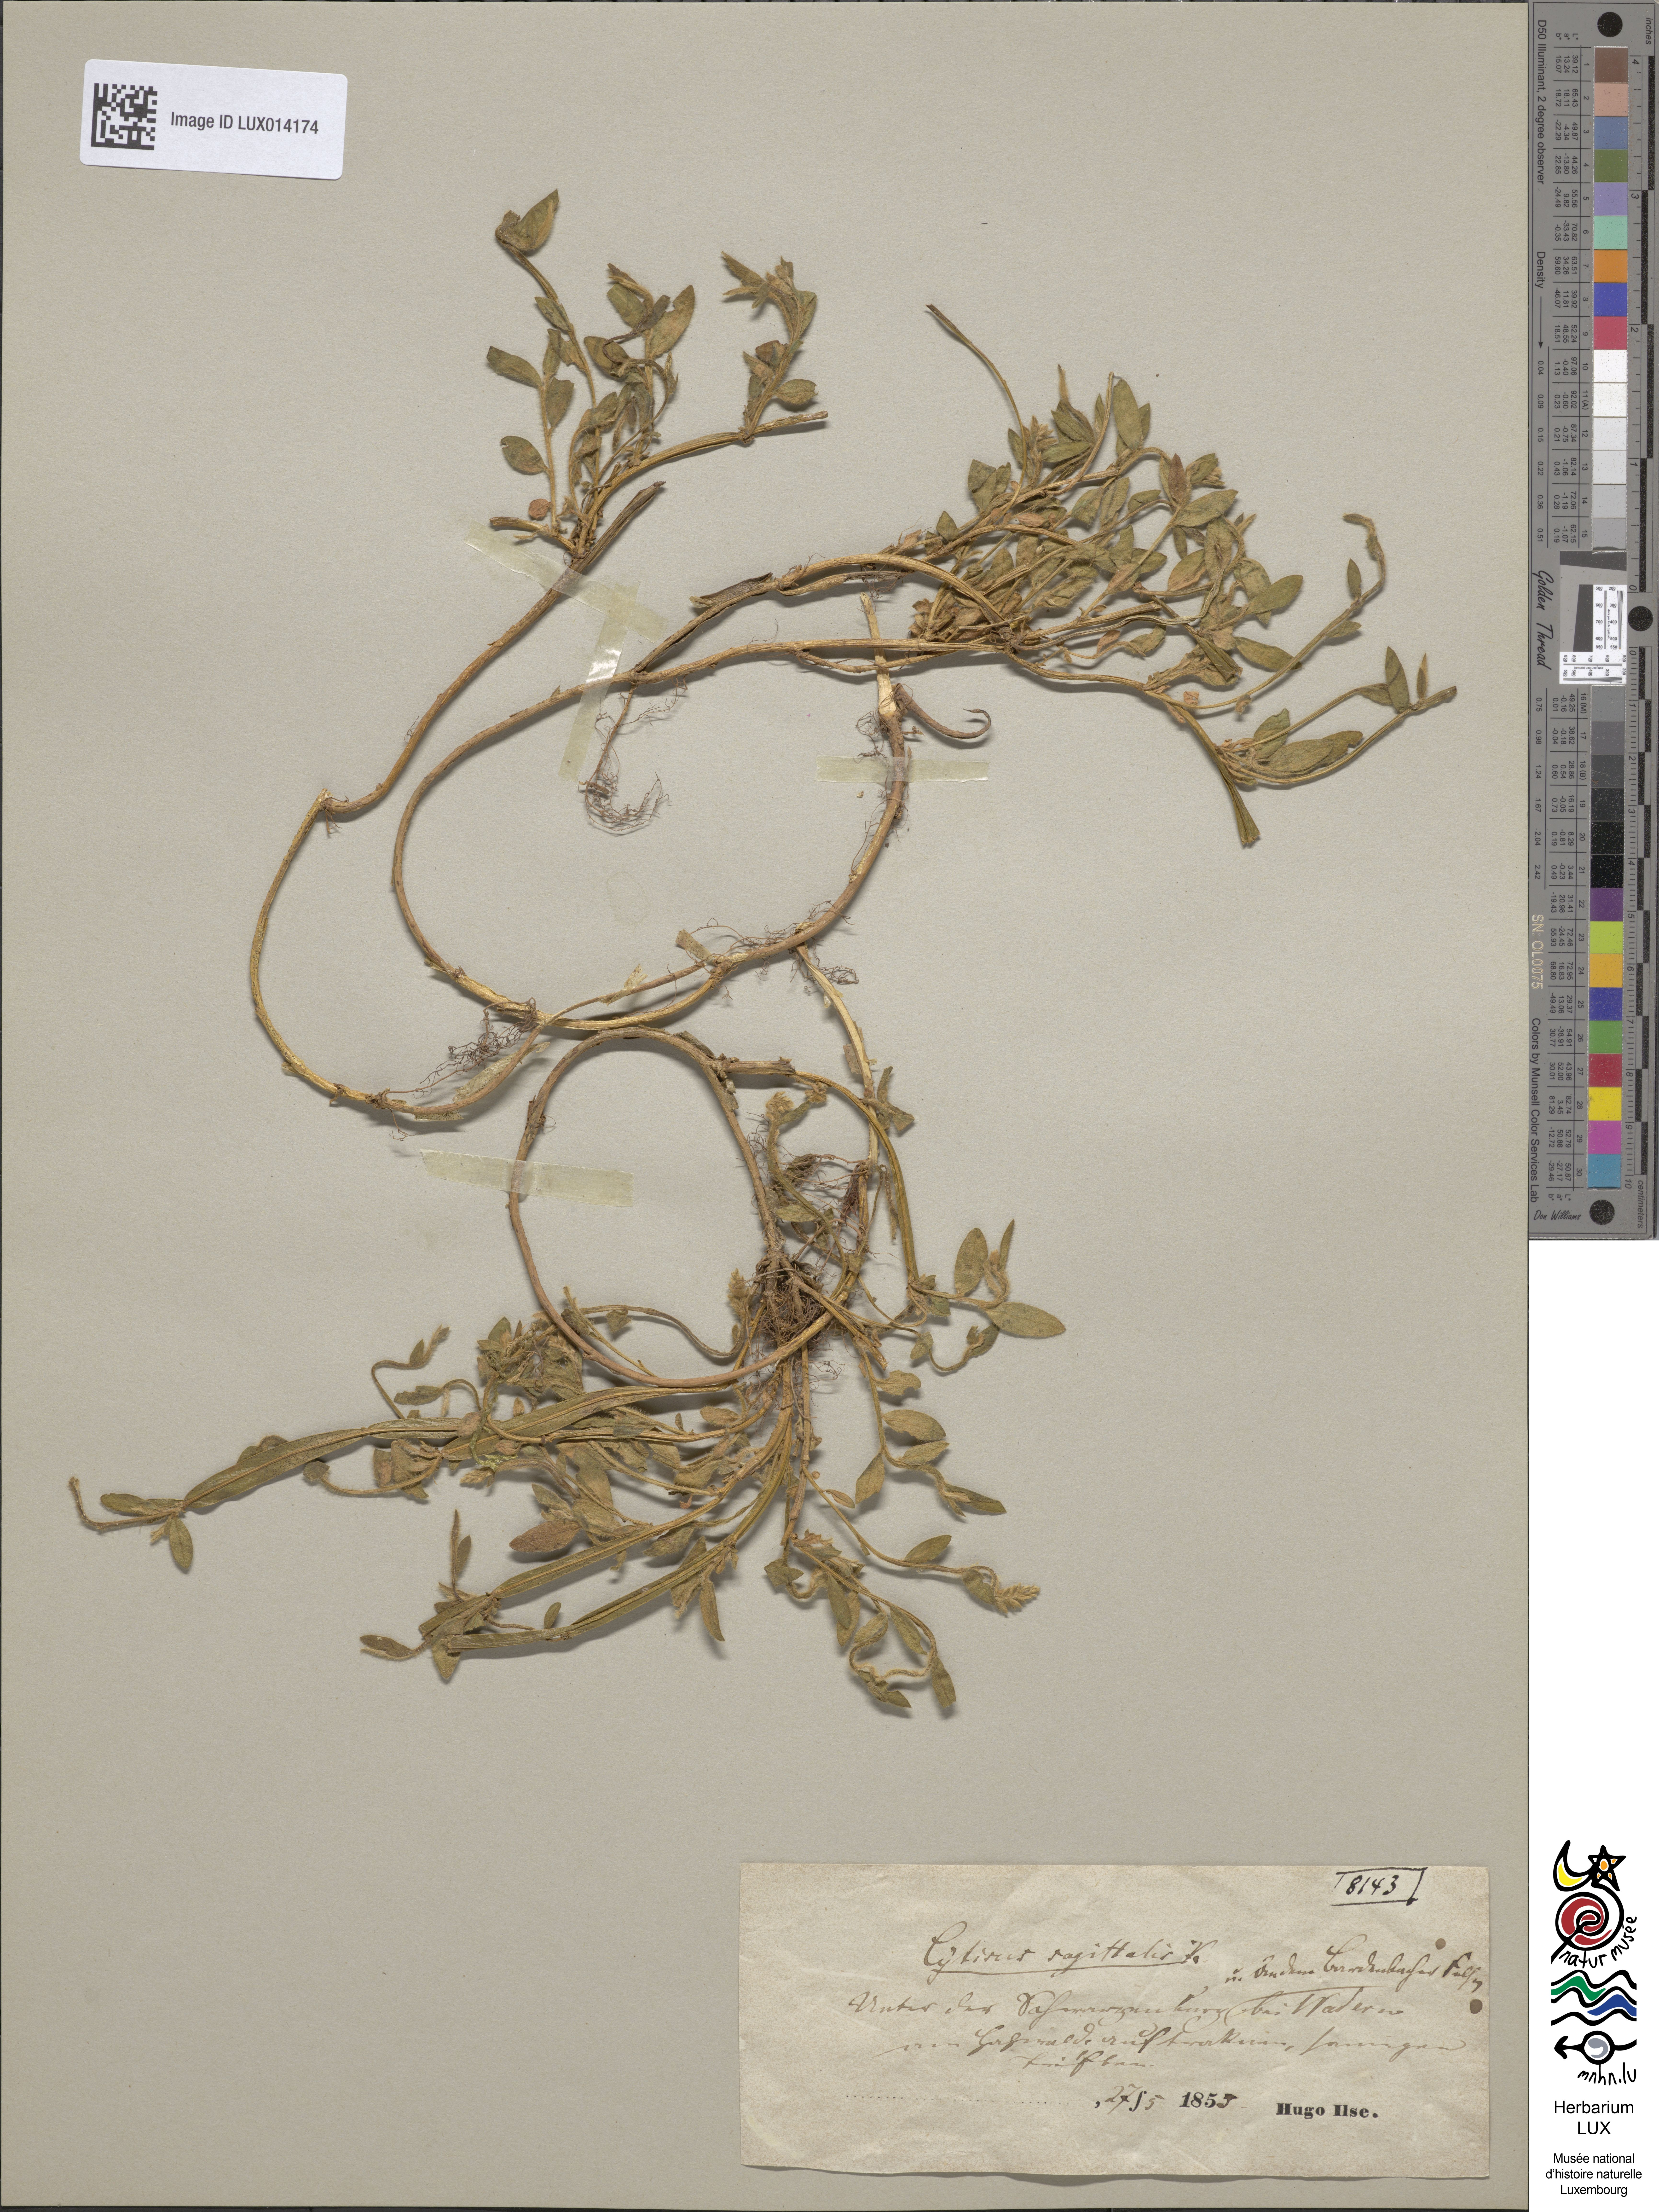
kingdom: Plantae
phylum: Tracheophyta
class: Magnoliopsida
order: Fabales
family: Fabaceae
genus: Genista
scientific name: Genista sagittalis
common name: Winged greenweed
